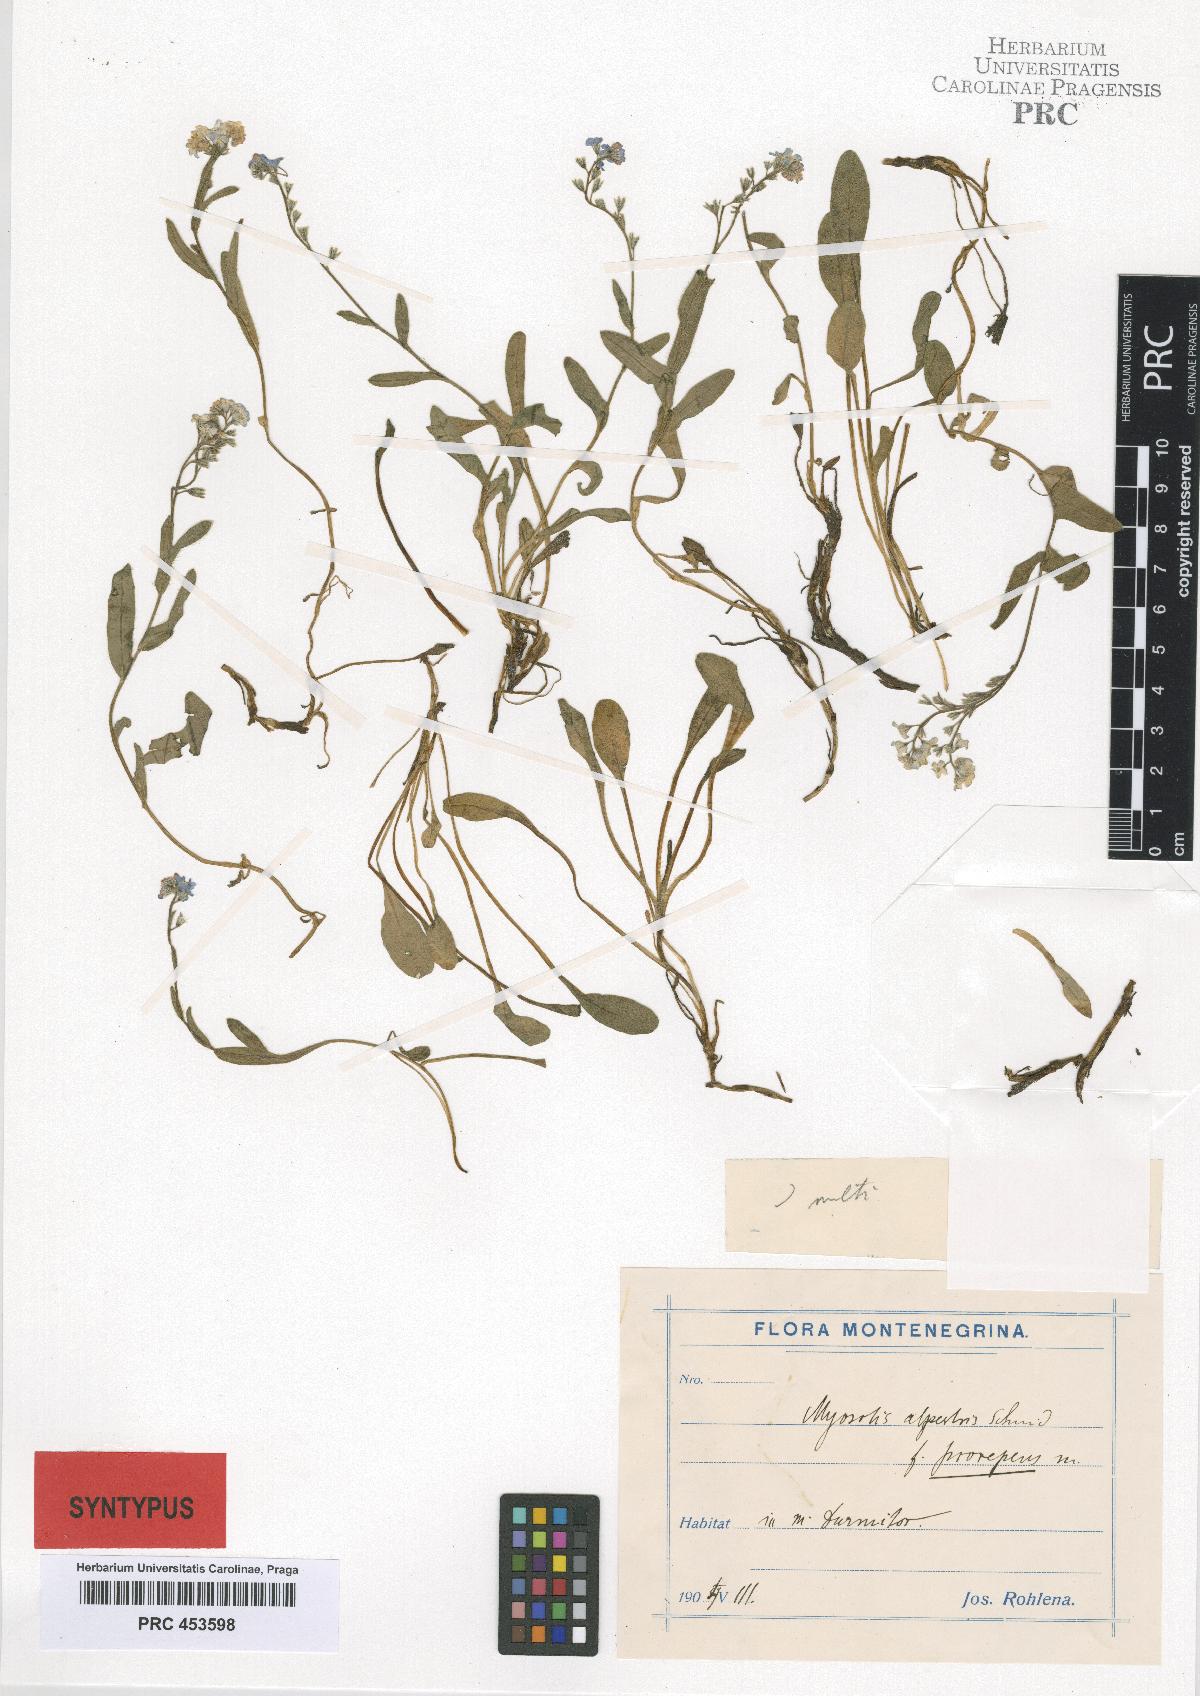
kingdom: Plantae
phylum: Tracheophyta
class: Magnoliopsida
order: Boraginales
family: Boraginaceae
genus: Myosotis
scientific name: Myosotis sylvatica
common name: Wood forget-me-not
